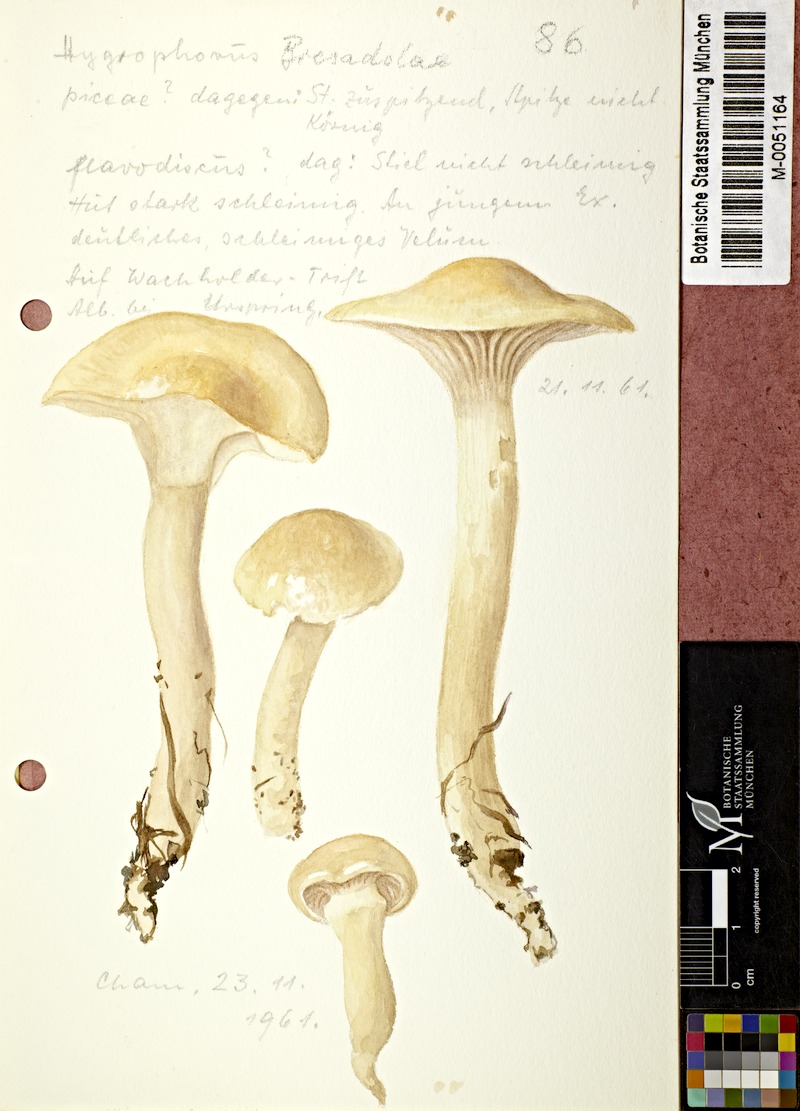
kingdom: Fungi
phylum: Basidiomycota
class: Agaricomycetes
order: Agaricales
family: Hygrophoraceae
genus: Hygrophorus
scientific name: Hygrophorus speciosus
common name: Splendid woodwax
